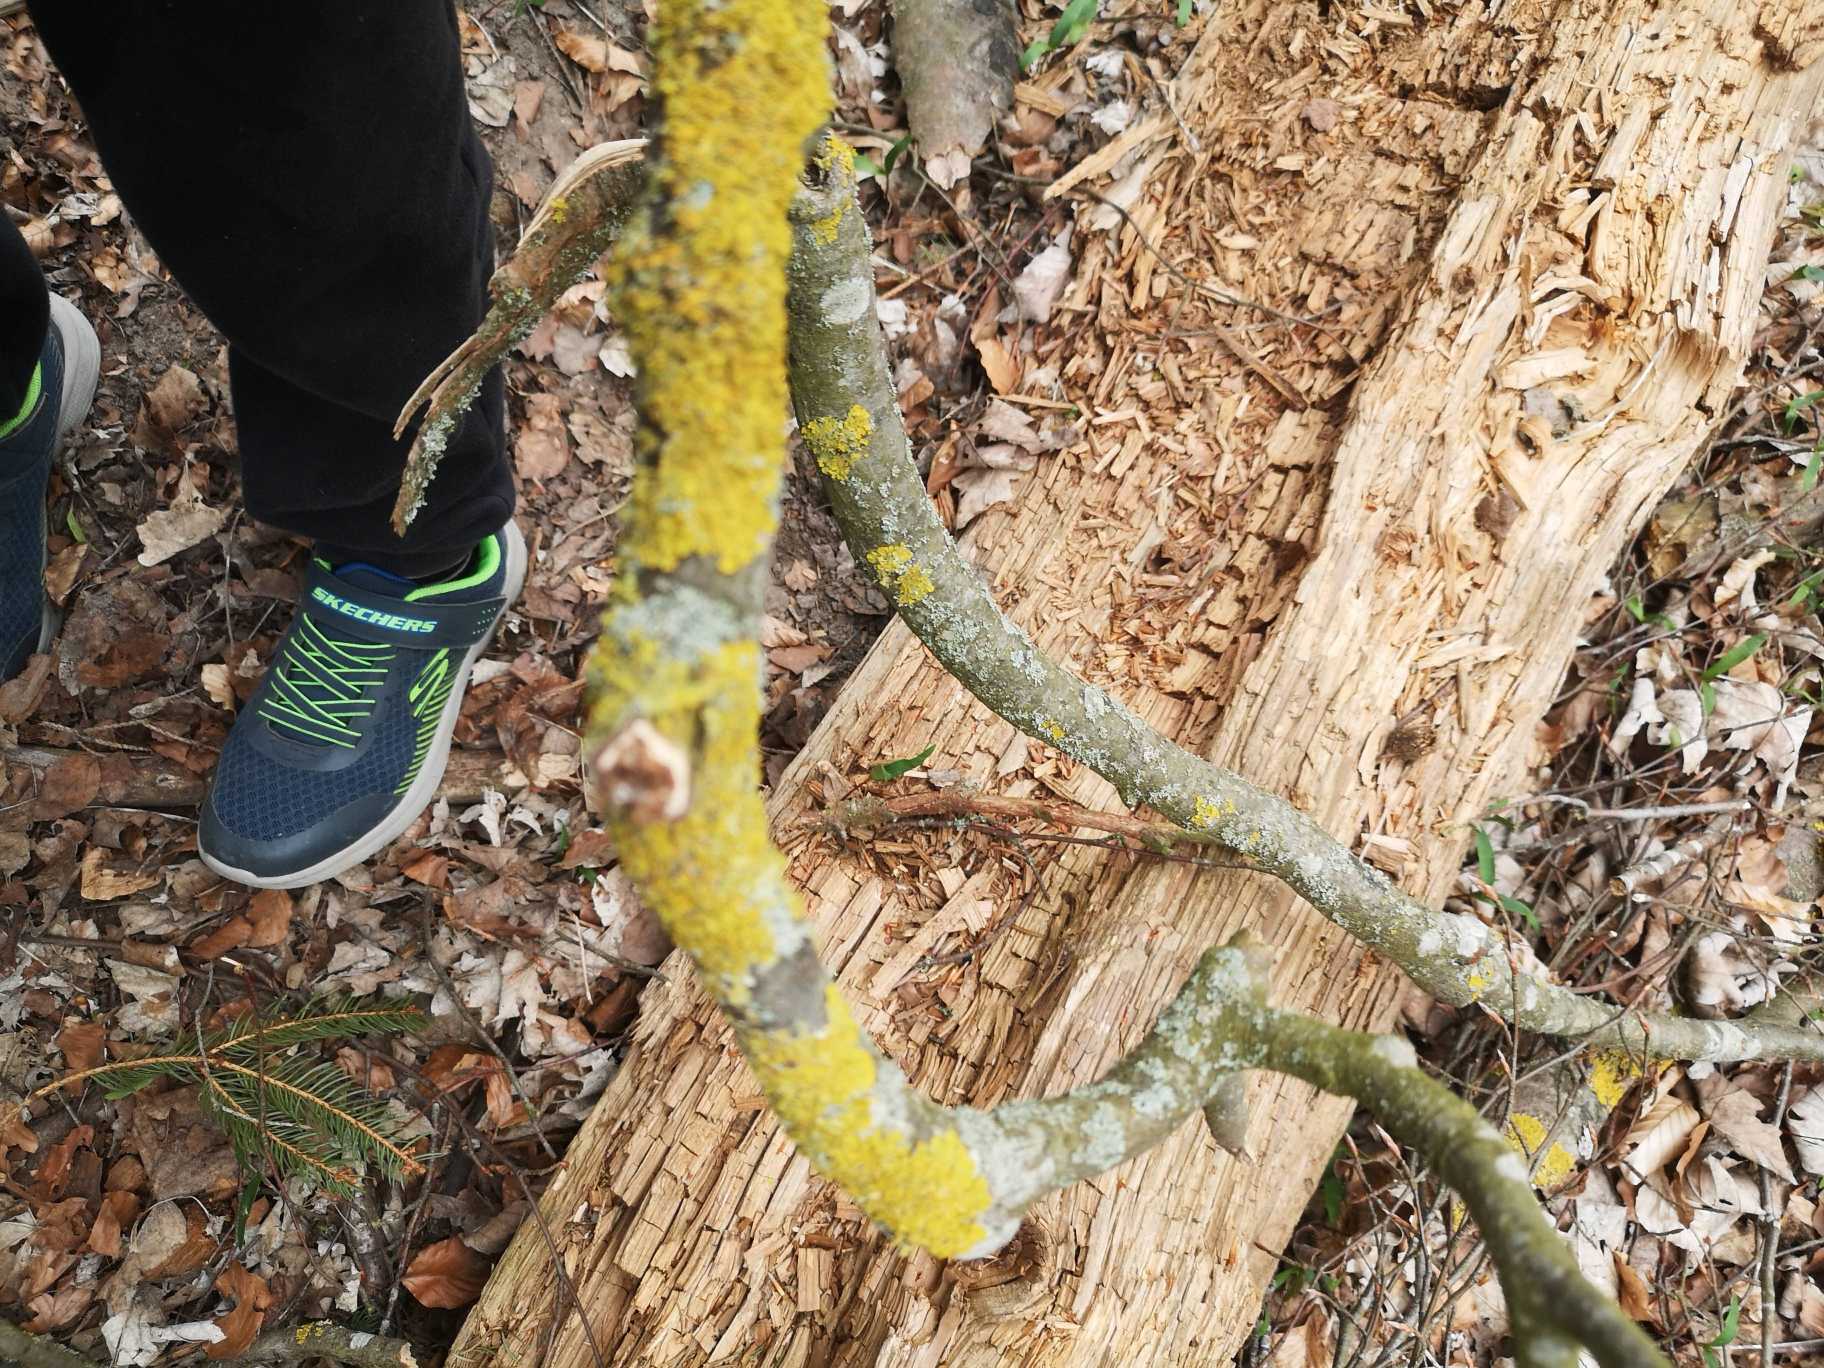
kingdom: Fungi
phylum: Ascomycota
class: Lecanoromycetes
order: Teloschistales
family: Teloschistaceae
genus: Xanthoria
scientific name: Xanthoria parietina
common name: Almindelig væggelav
